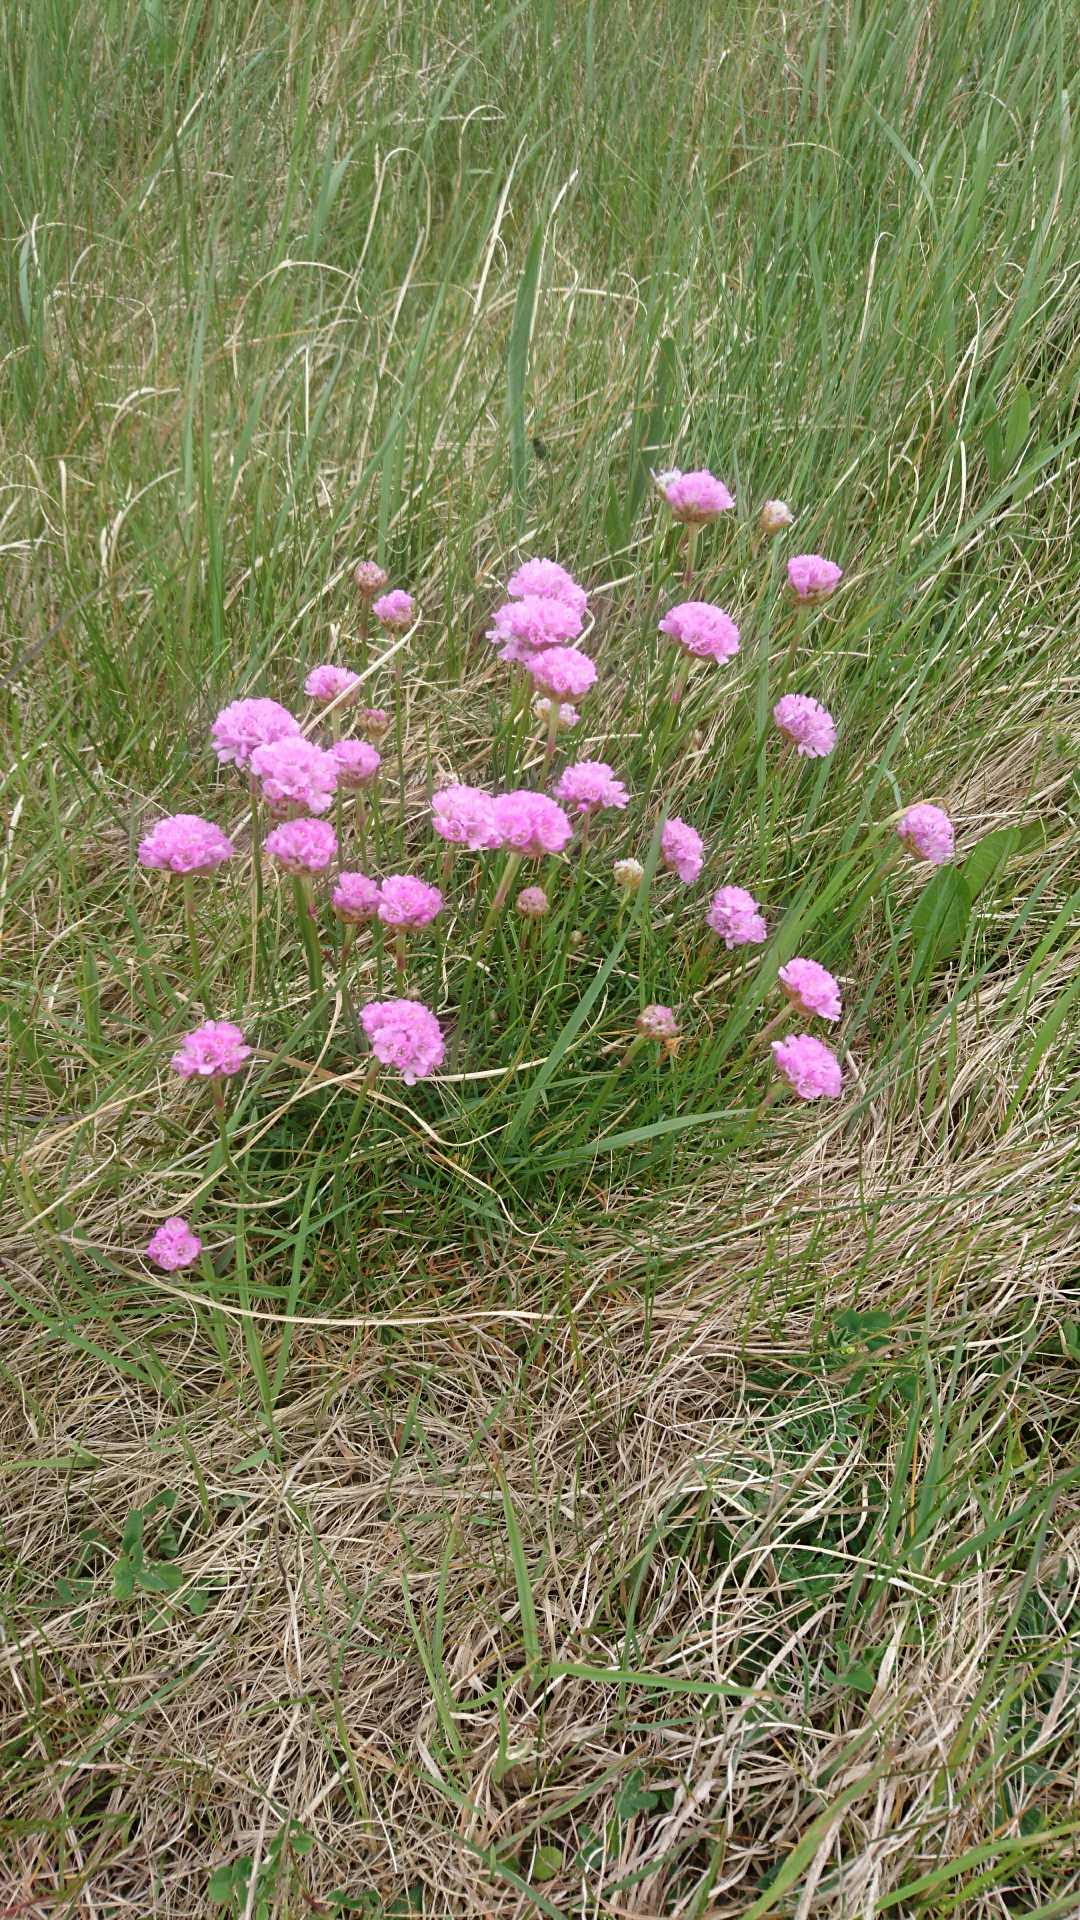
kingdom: Plantae
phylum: Tracheophyta
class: Magnoliopsida
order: Caryophyllales
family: Plumbaginaceae
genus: Armeria
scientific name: Armeria maritima
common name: Engelskgræs
